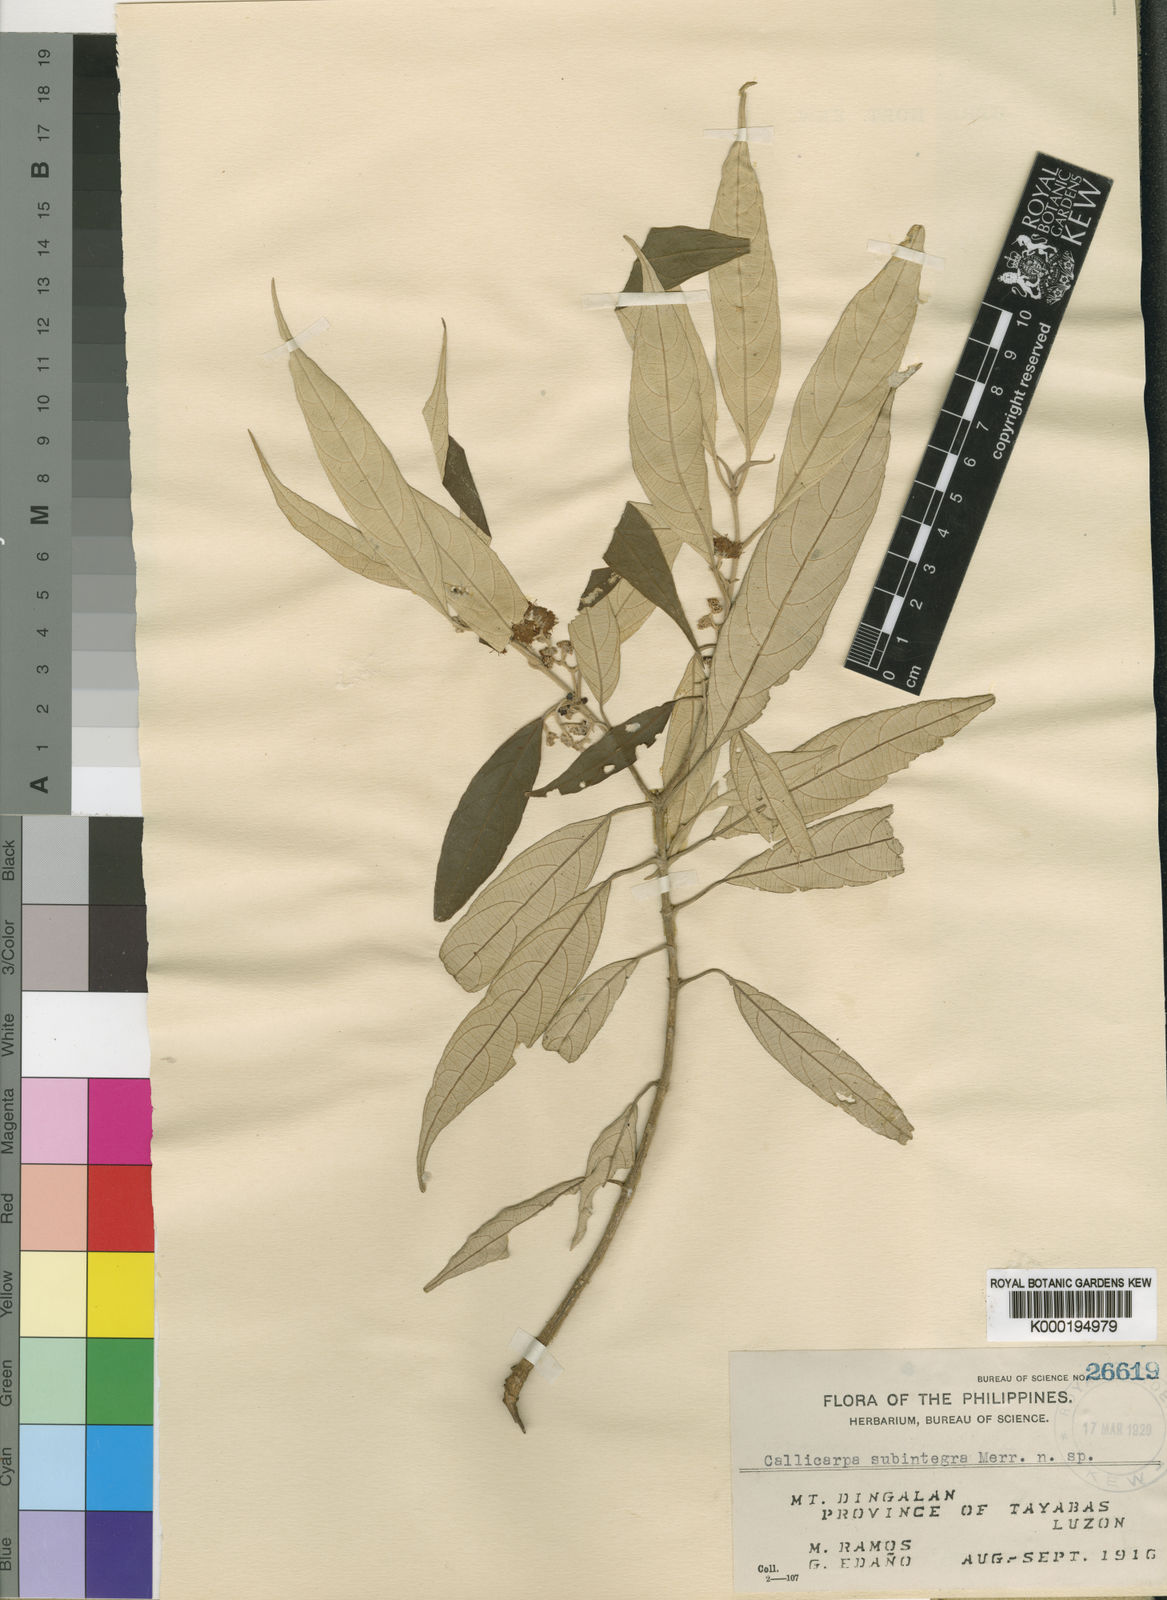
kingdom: Plantae
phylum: Tracheophyta
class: Magnoliopsida
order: Lamiales
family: Lamiaceae
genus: Callicarpa
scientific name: Callicarpa subintegra
